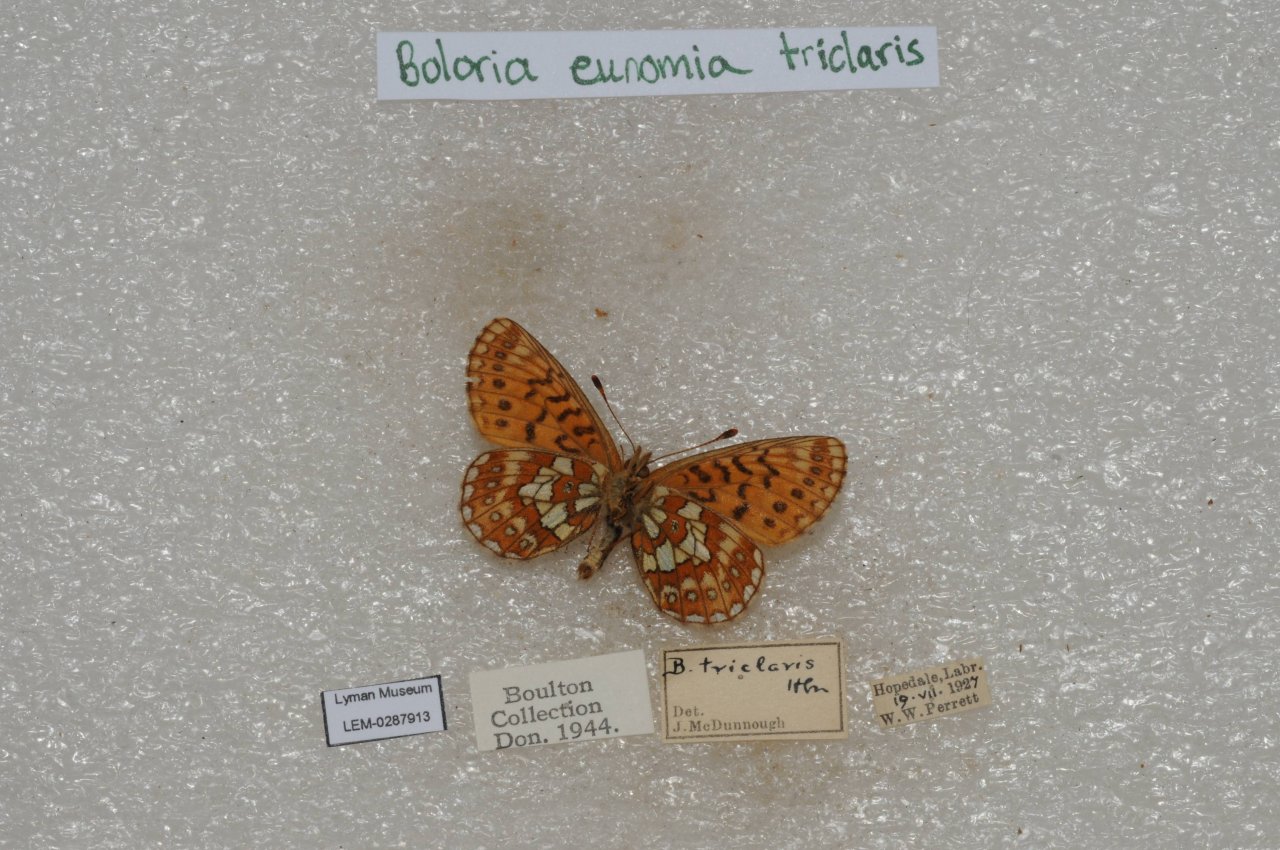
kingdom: Animalia
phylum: Arthropoda
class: Insecta
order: Lepidoptera
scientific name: Lepidoptera
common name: Butterflies
